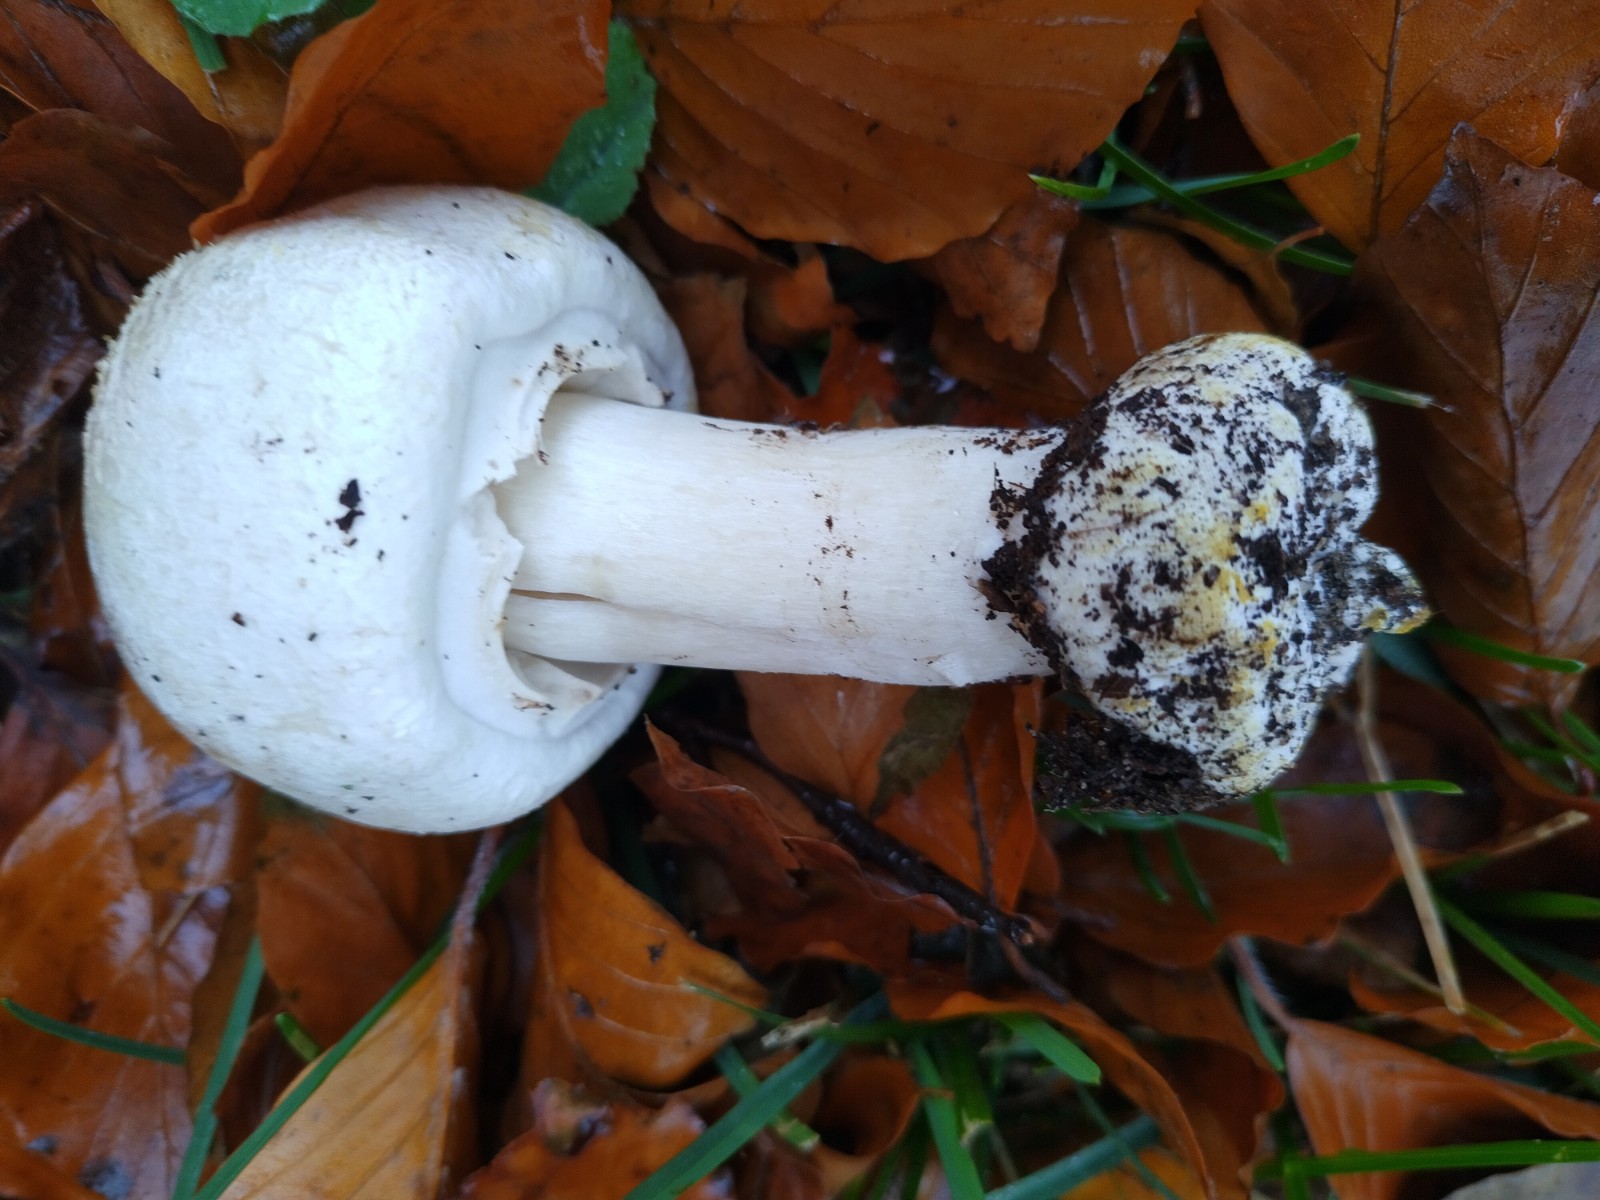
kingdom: Fungi
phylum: Basidiomycota
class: Agaricomycetes
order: Agaricales
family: Agaricaceae
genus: Agaricus
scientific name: Agaricus xanthodermus
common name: karbol-champignon
